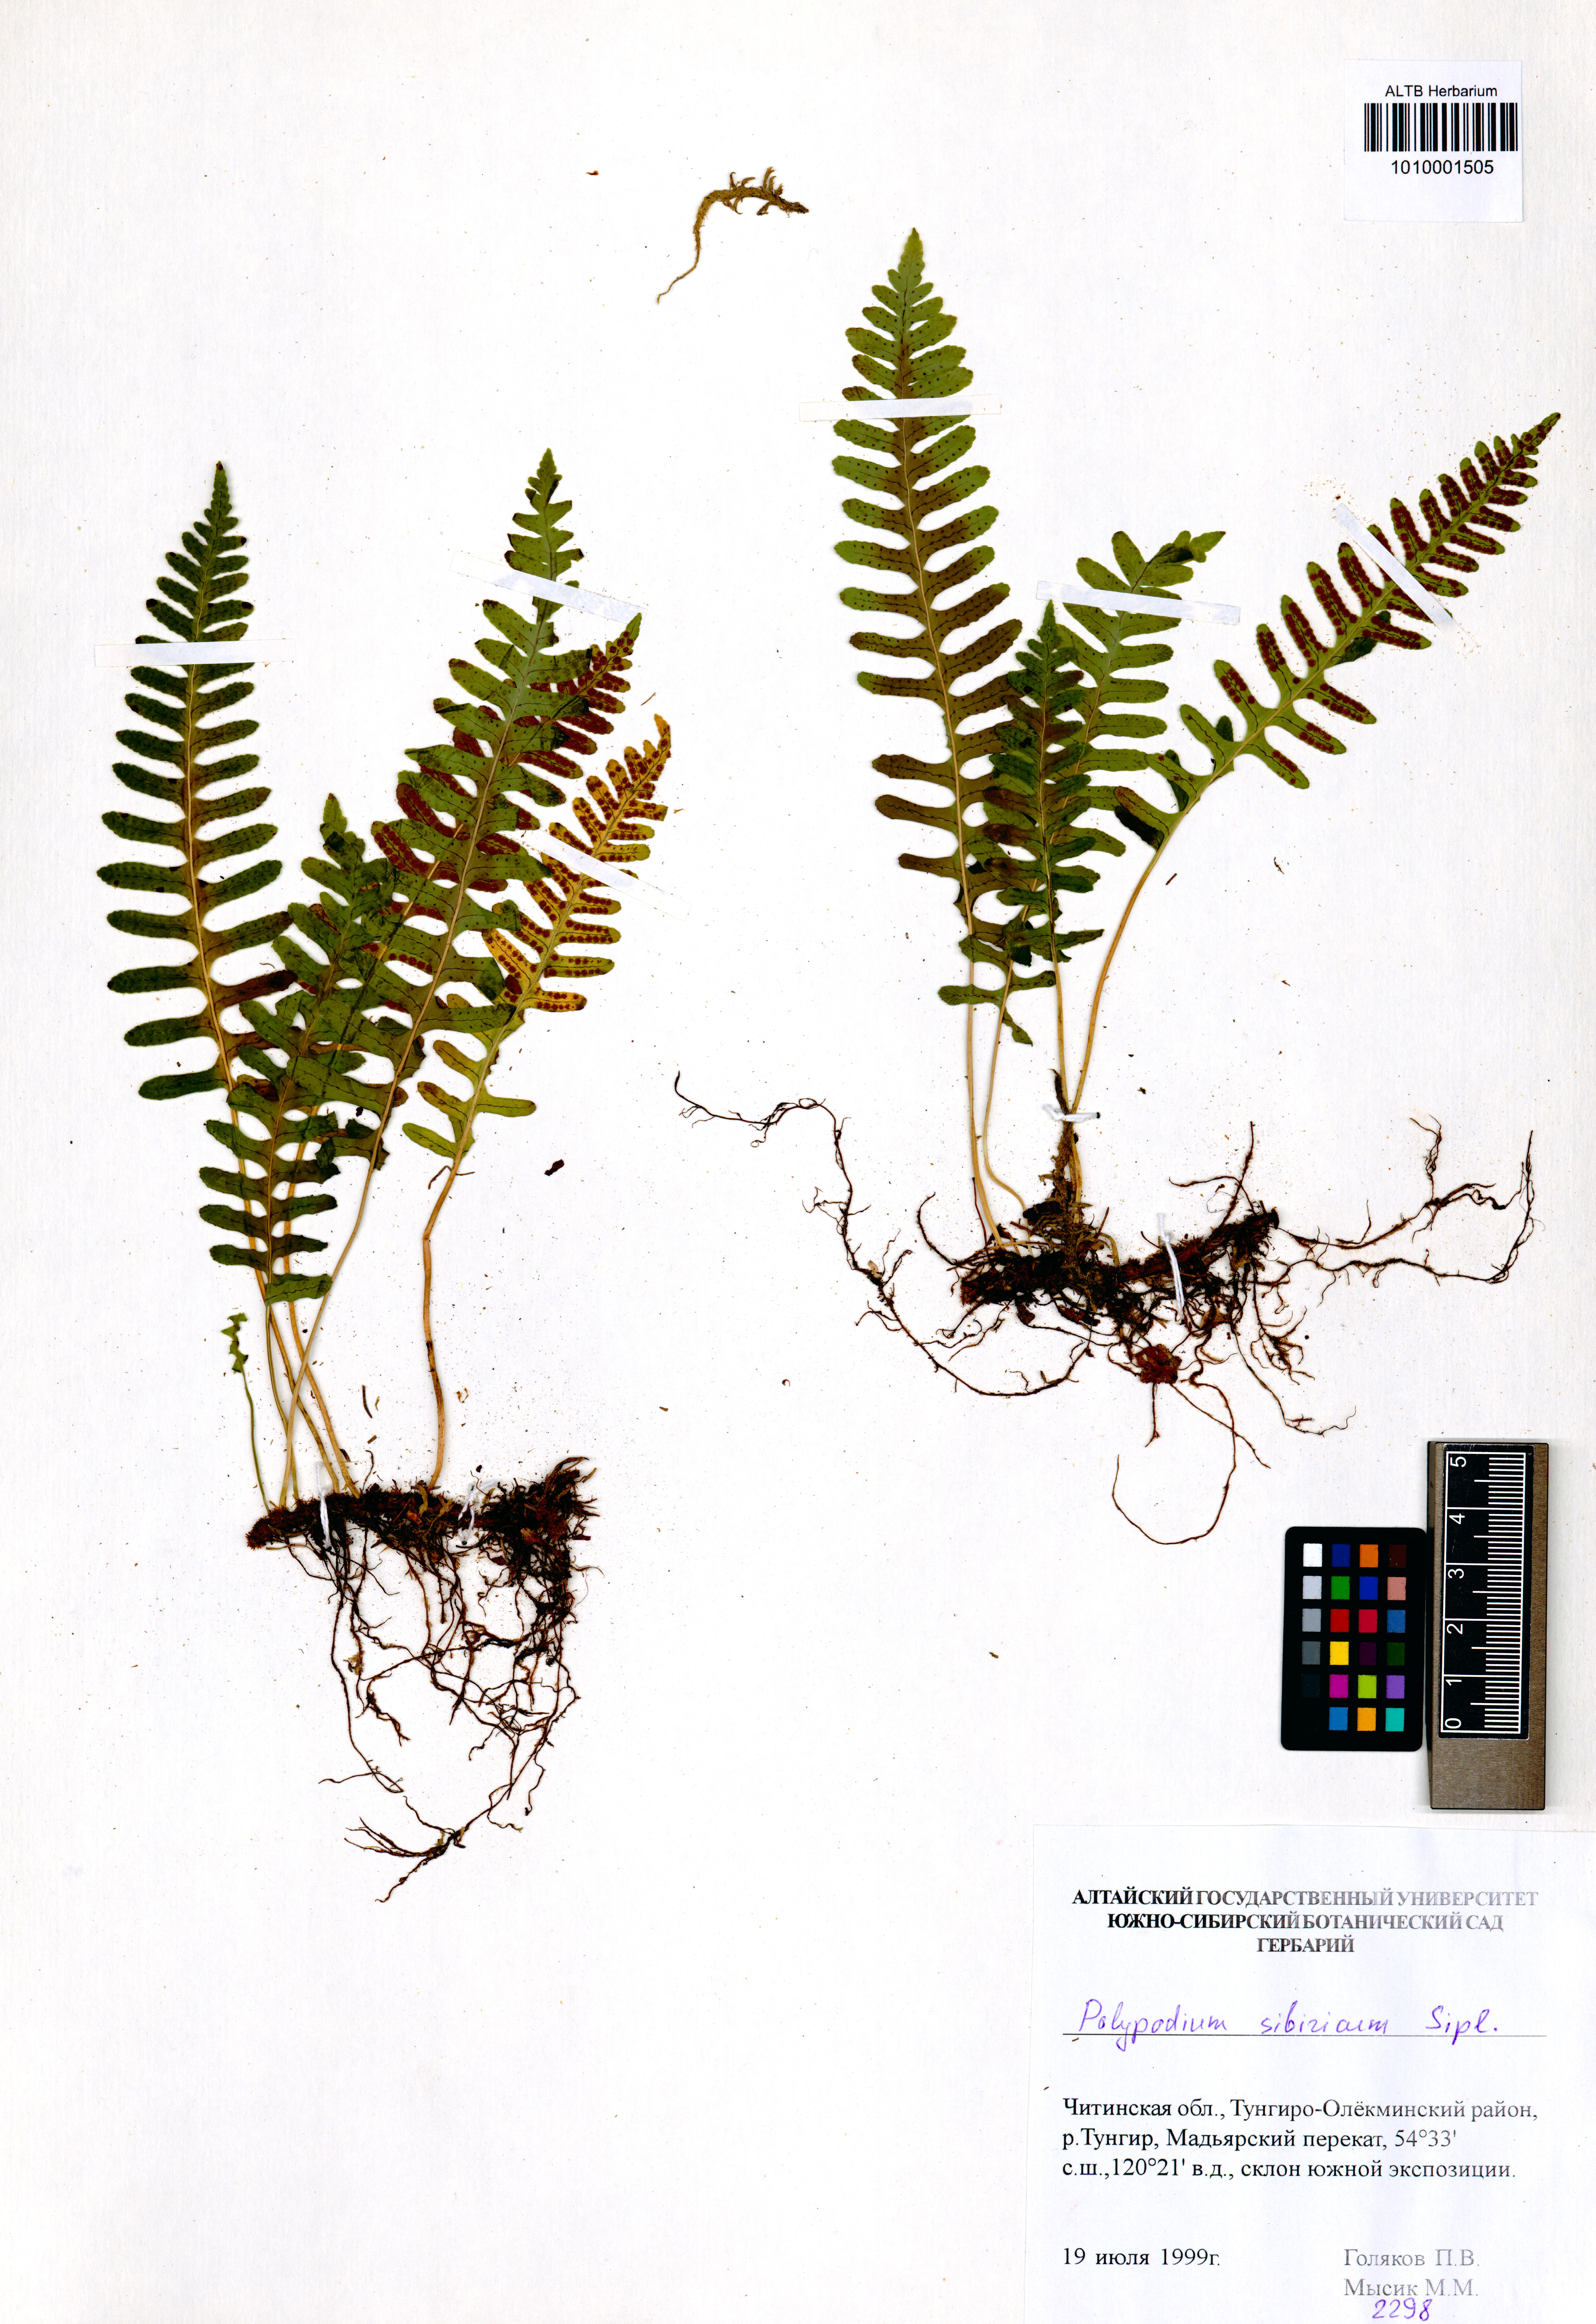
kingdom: Plantae
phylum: Tracheophyta
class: Polypodiopsida
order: Polypodiales
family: Polypodiaceae
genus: Polypodium
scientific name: Polypodium sibiricum
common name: Siberian polypody
